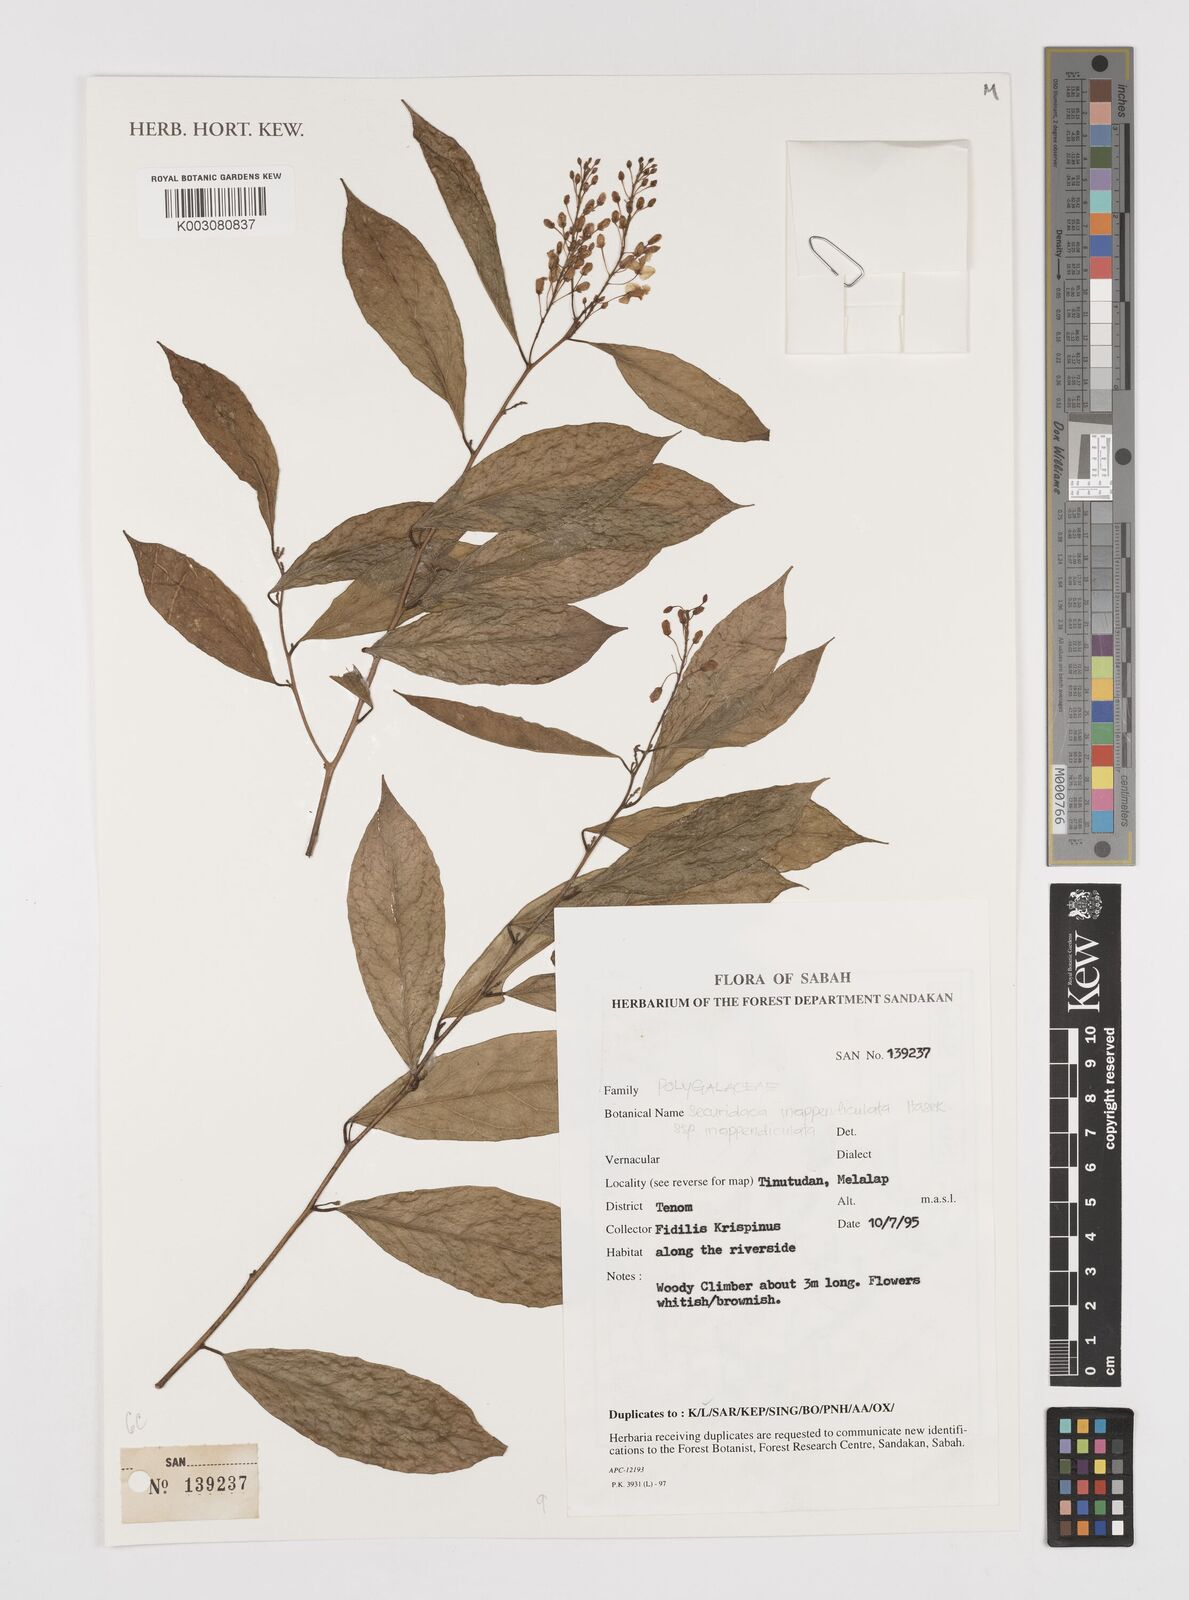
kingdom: Plantae
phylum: Tracheophyta
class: Magnoliopsida
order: Fabales
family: Polygalaceae
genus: Securidaca
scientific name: Securidaca inappendiculata
